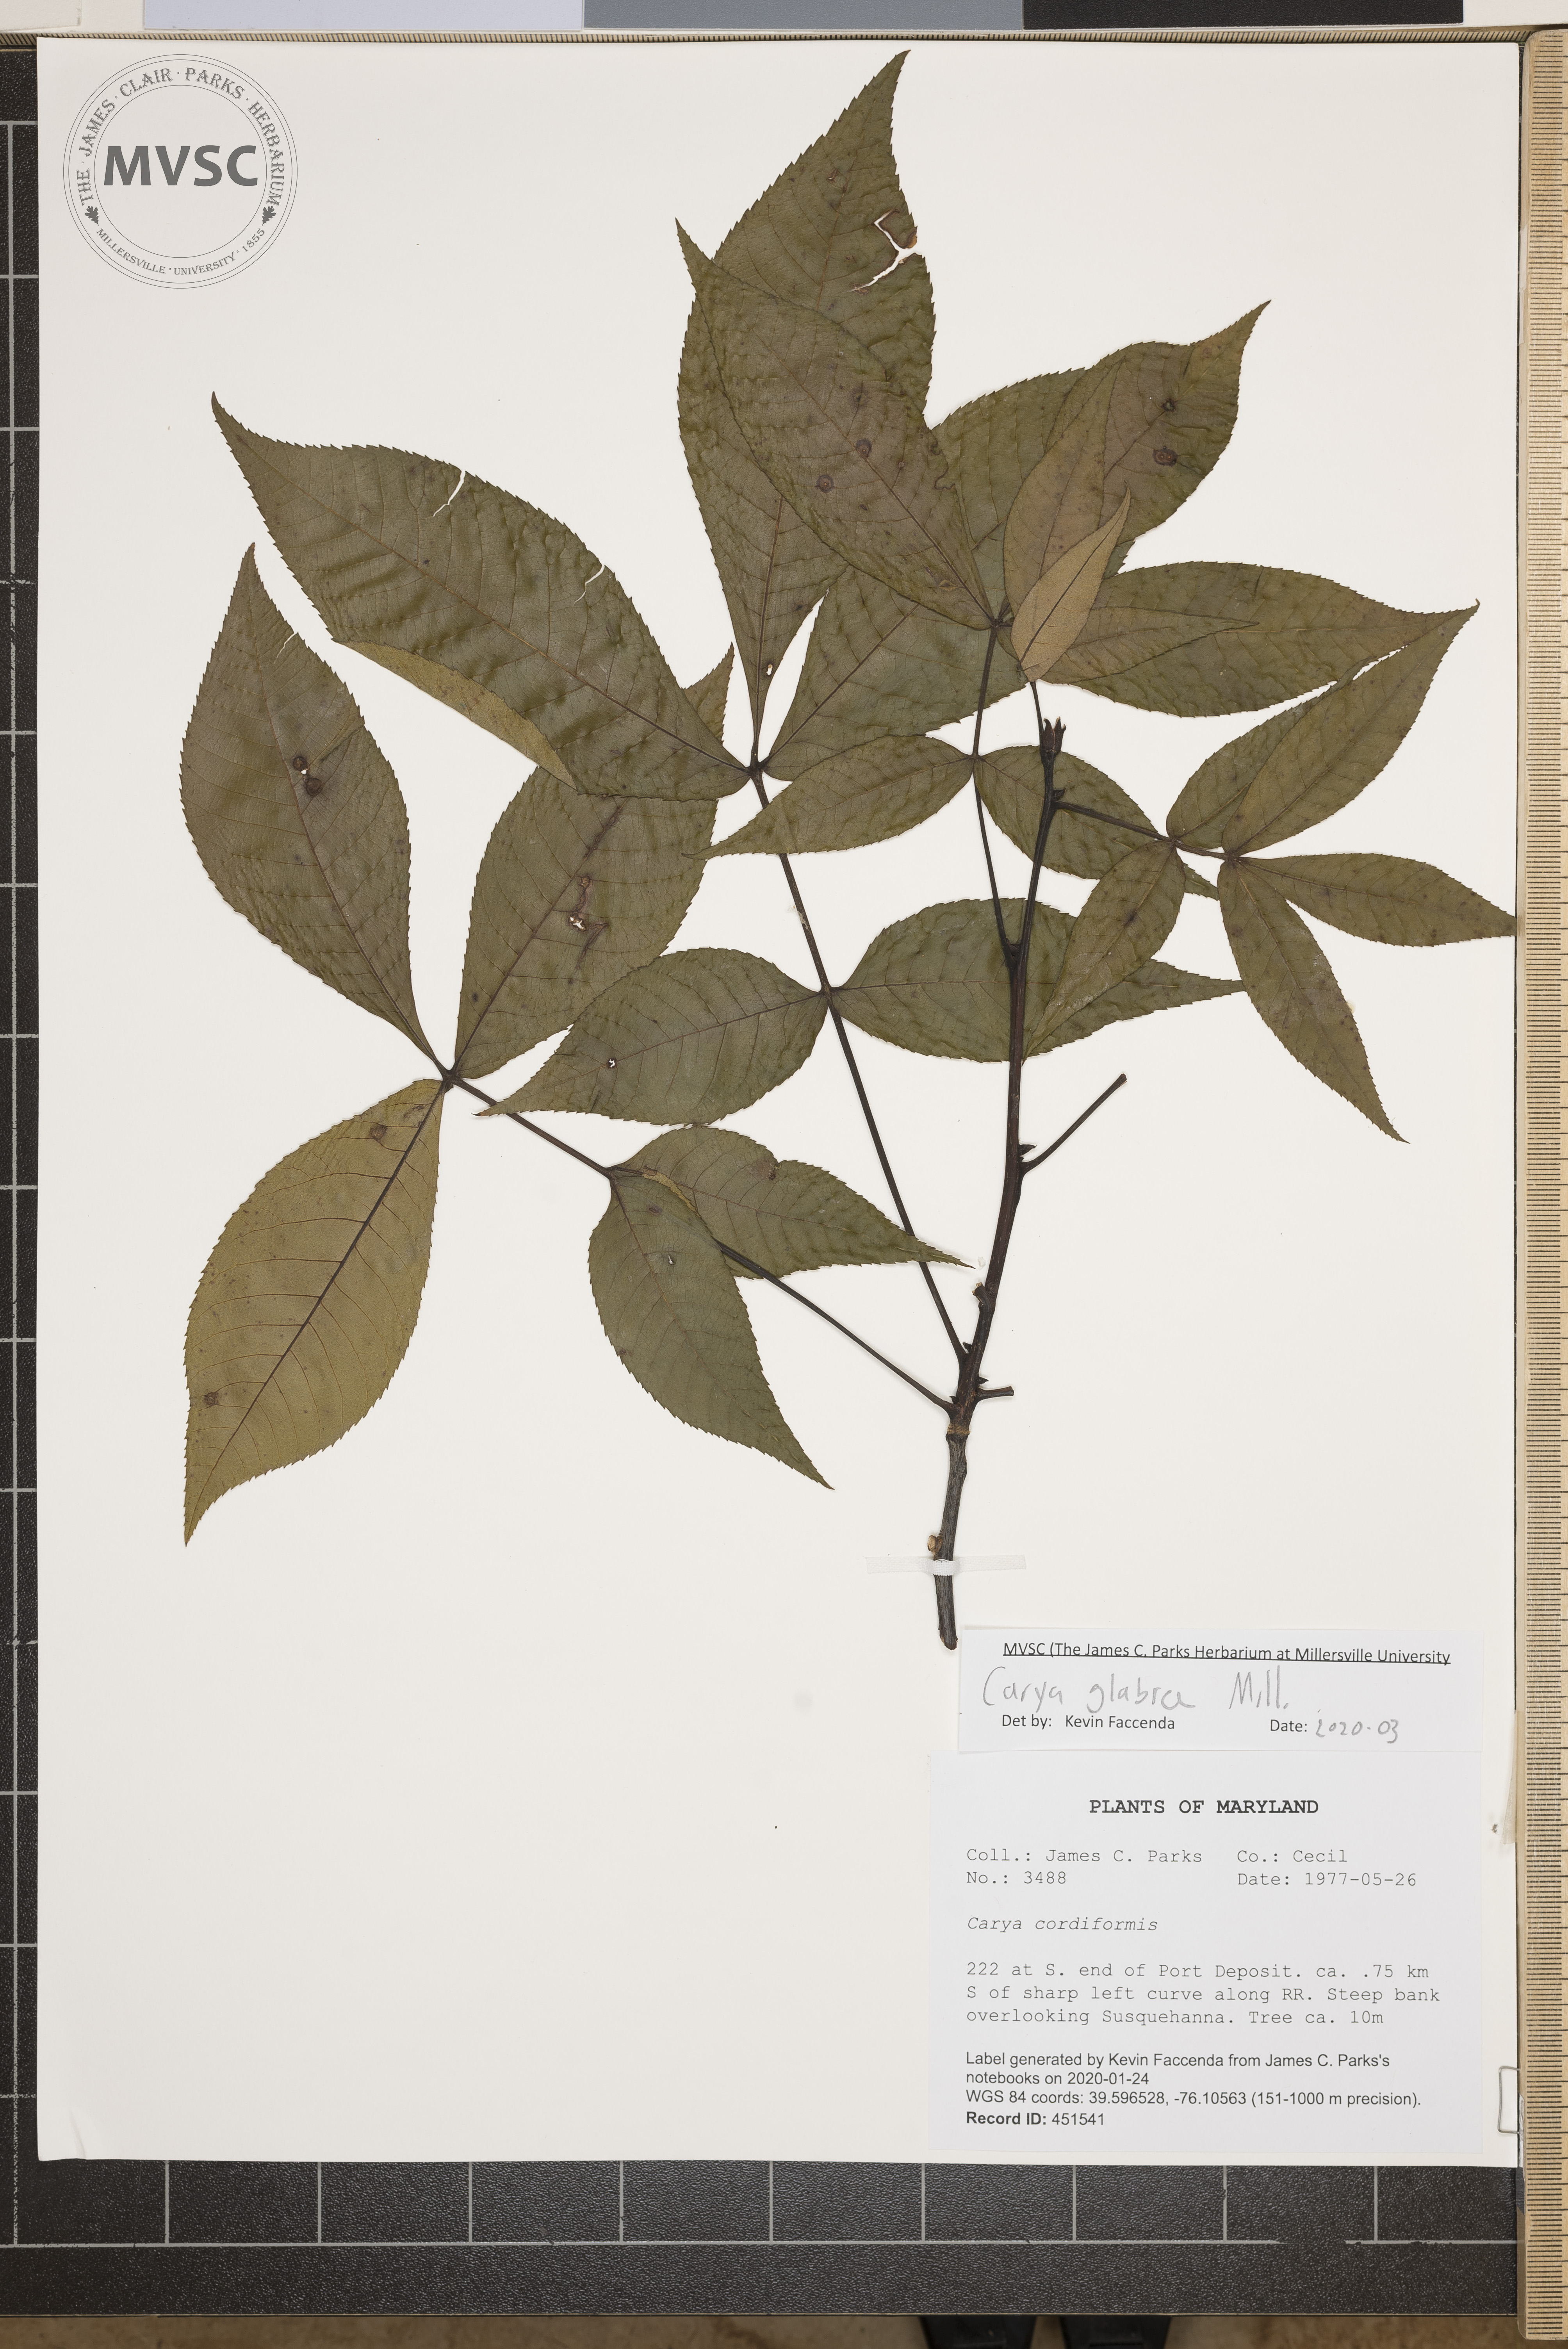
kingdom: Plantae
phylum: Tracheophyta
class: Magnoliopsida
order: Fagales
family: Juglandaceae
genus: Carya
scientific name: Carya glabra
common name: Pignut hickory
